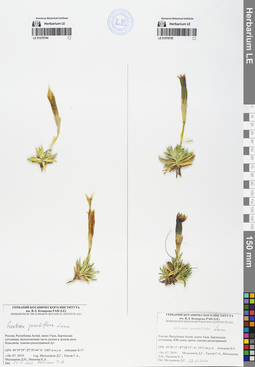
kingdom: Plantae
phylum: Tracheophyta
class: Magnoliopsida
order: Gentianales
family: Gentianaceae
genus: Gentiana
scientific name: Gentiana grandiflora
